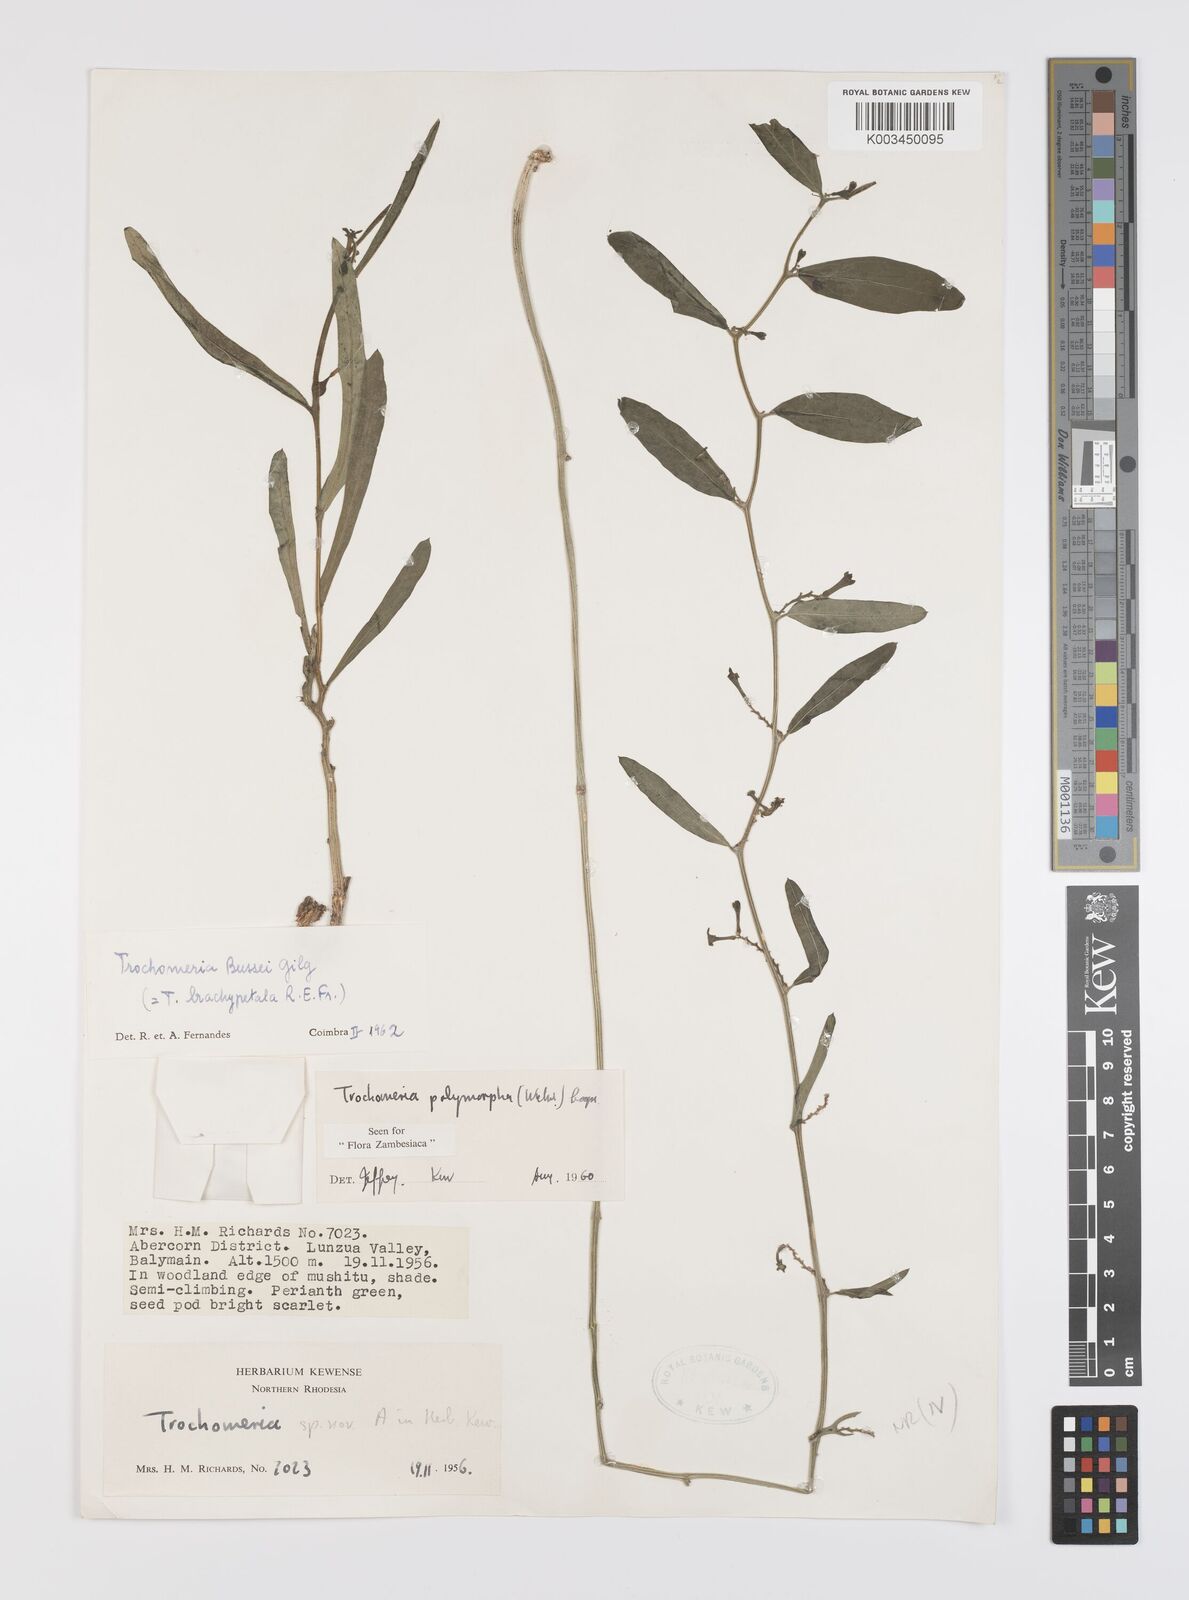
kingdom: Plantae
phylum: Tracheophyta
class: Magnoliopsida
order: Cucurbitales
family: Cucurbitaceae
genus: Trochomeria
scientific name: Trochomeria polymorpha
